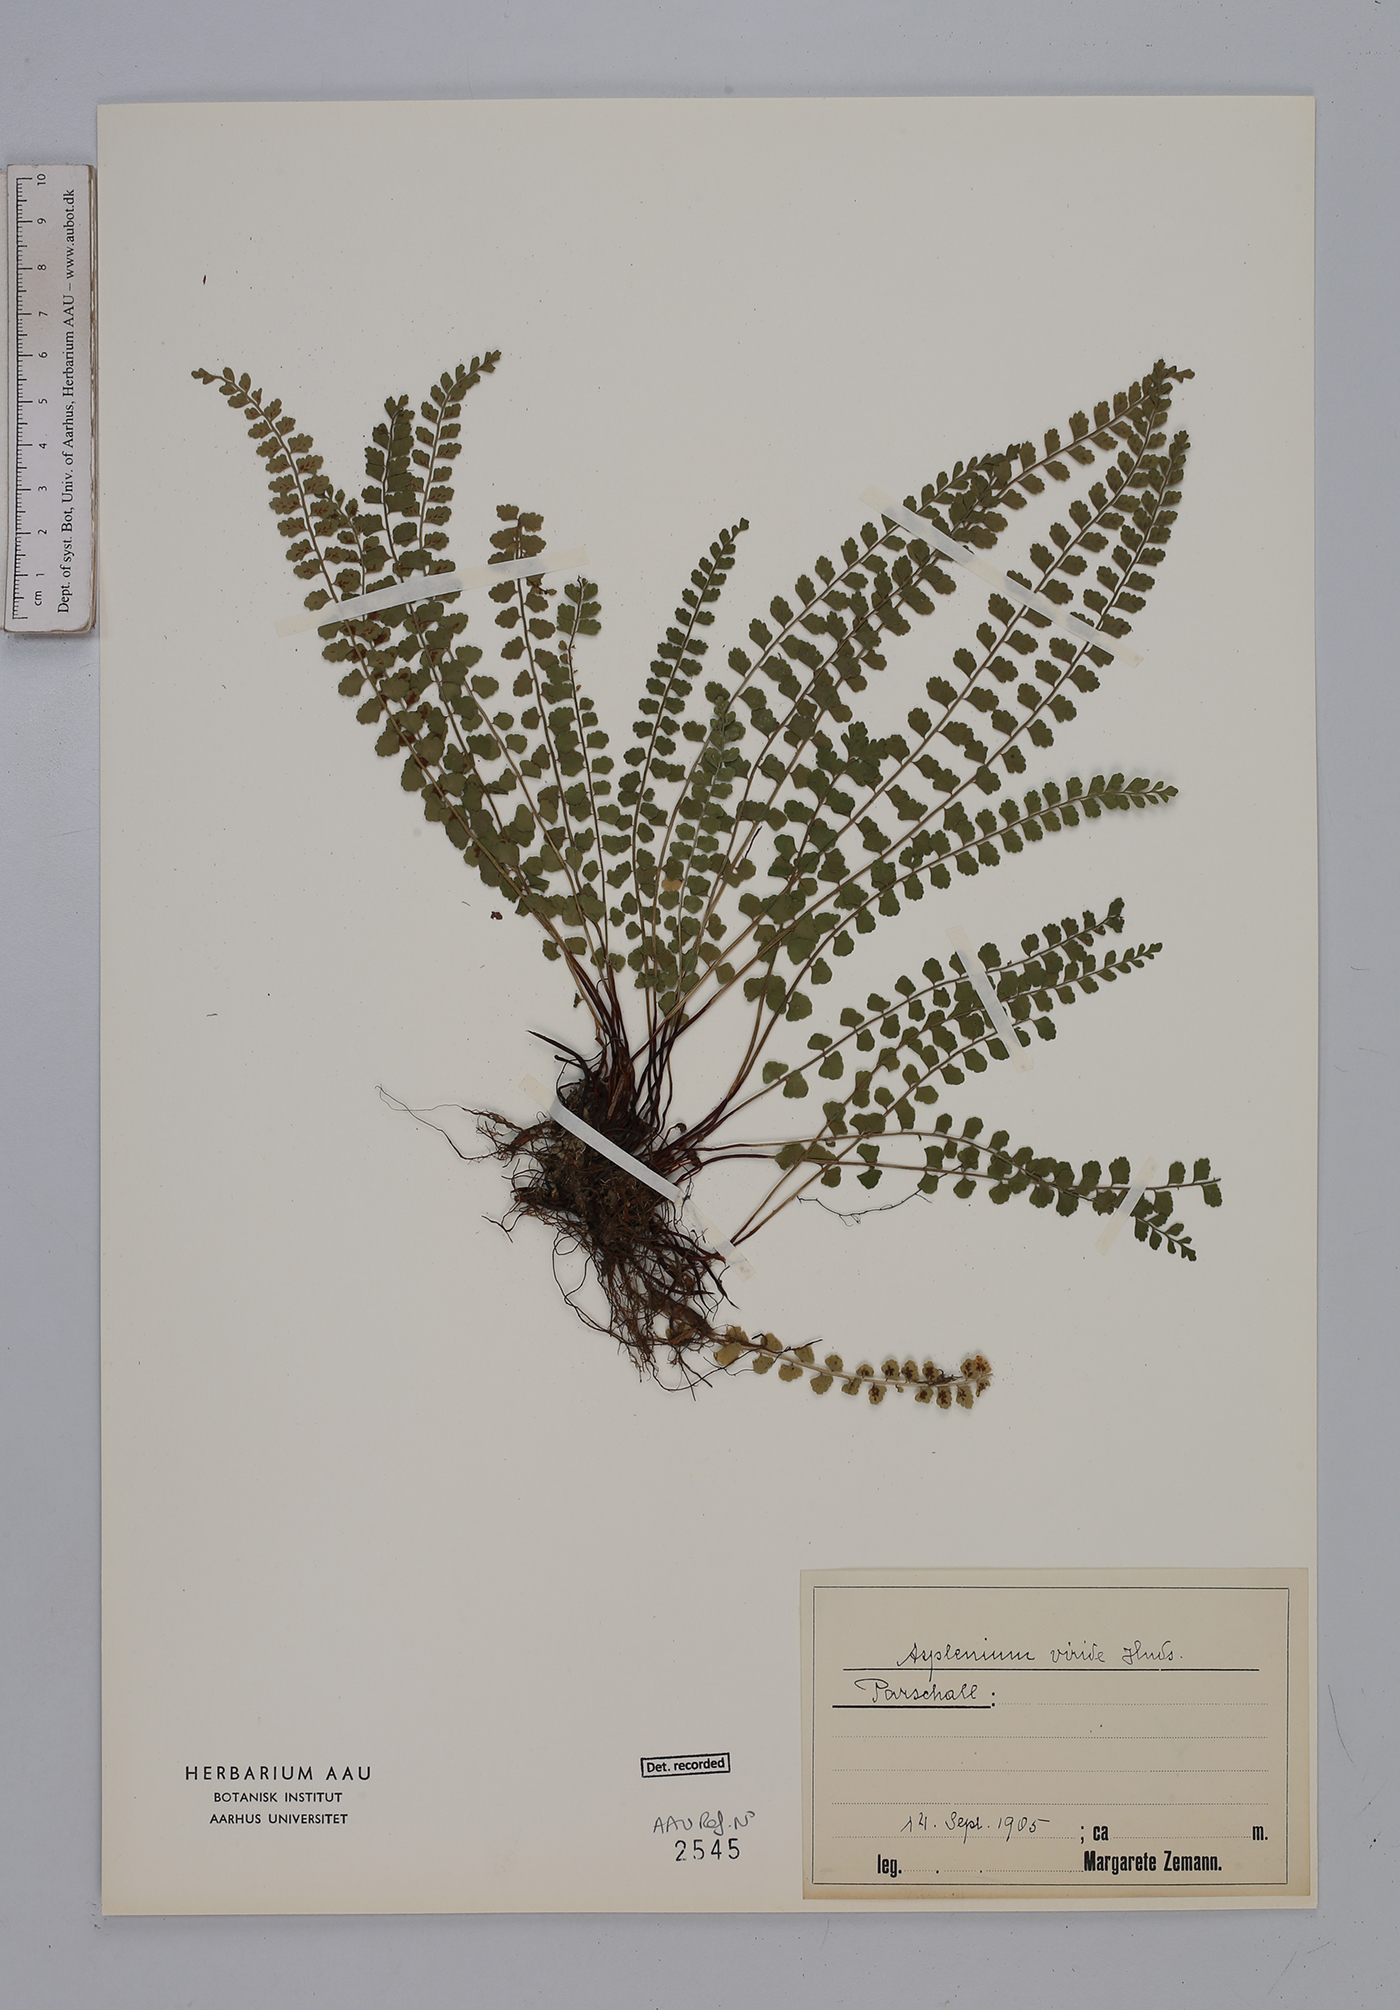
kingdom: Plantae
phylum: Tracheophyta
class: Polypodiopsida
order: Polypodiales
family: Aspleniaceae
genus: Asplenium
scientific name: Asplenium viride
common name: Green spleenwort
